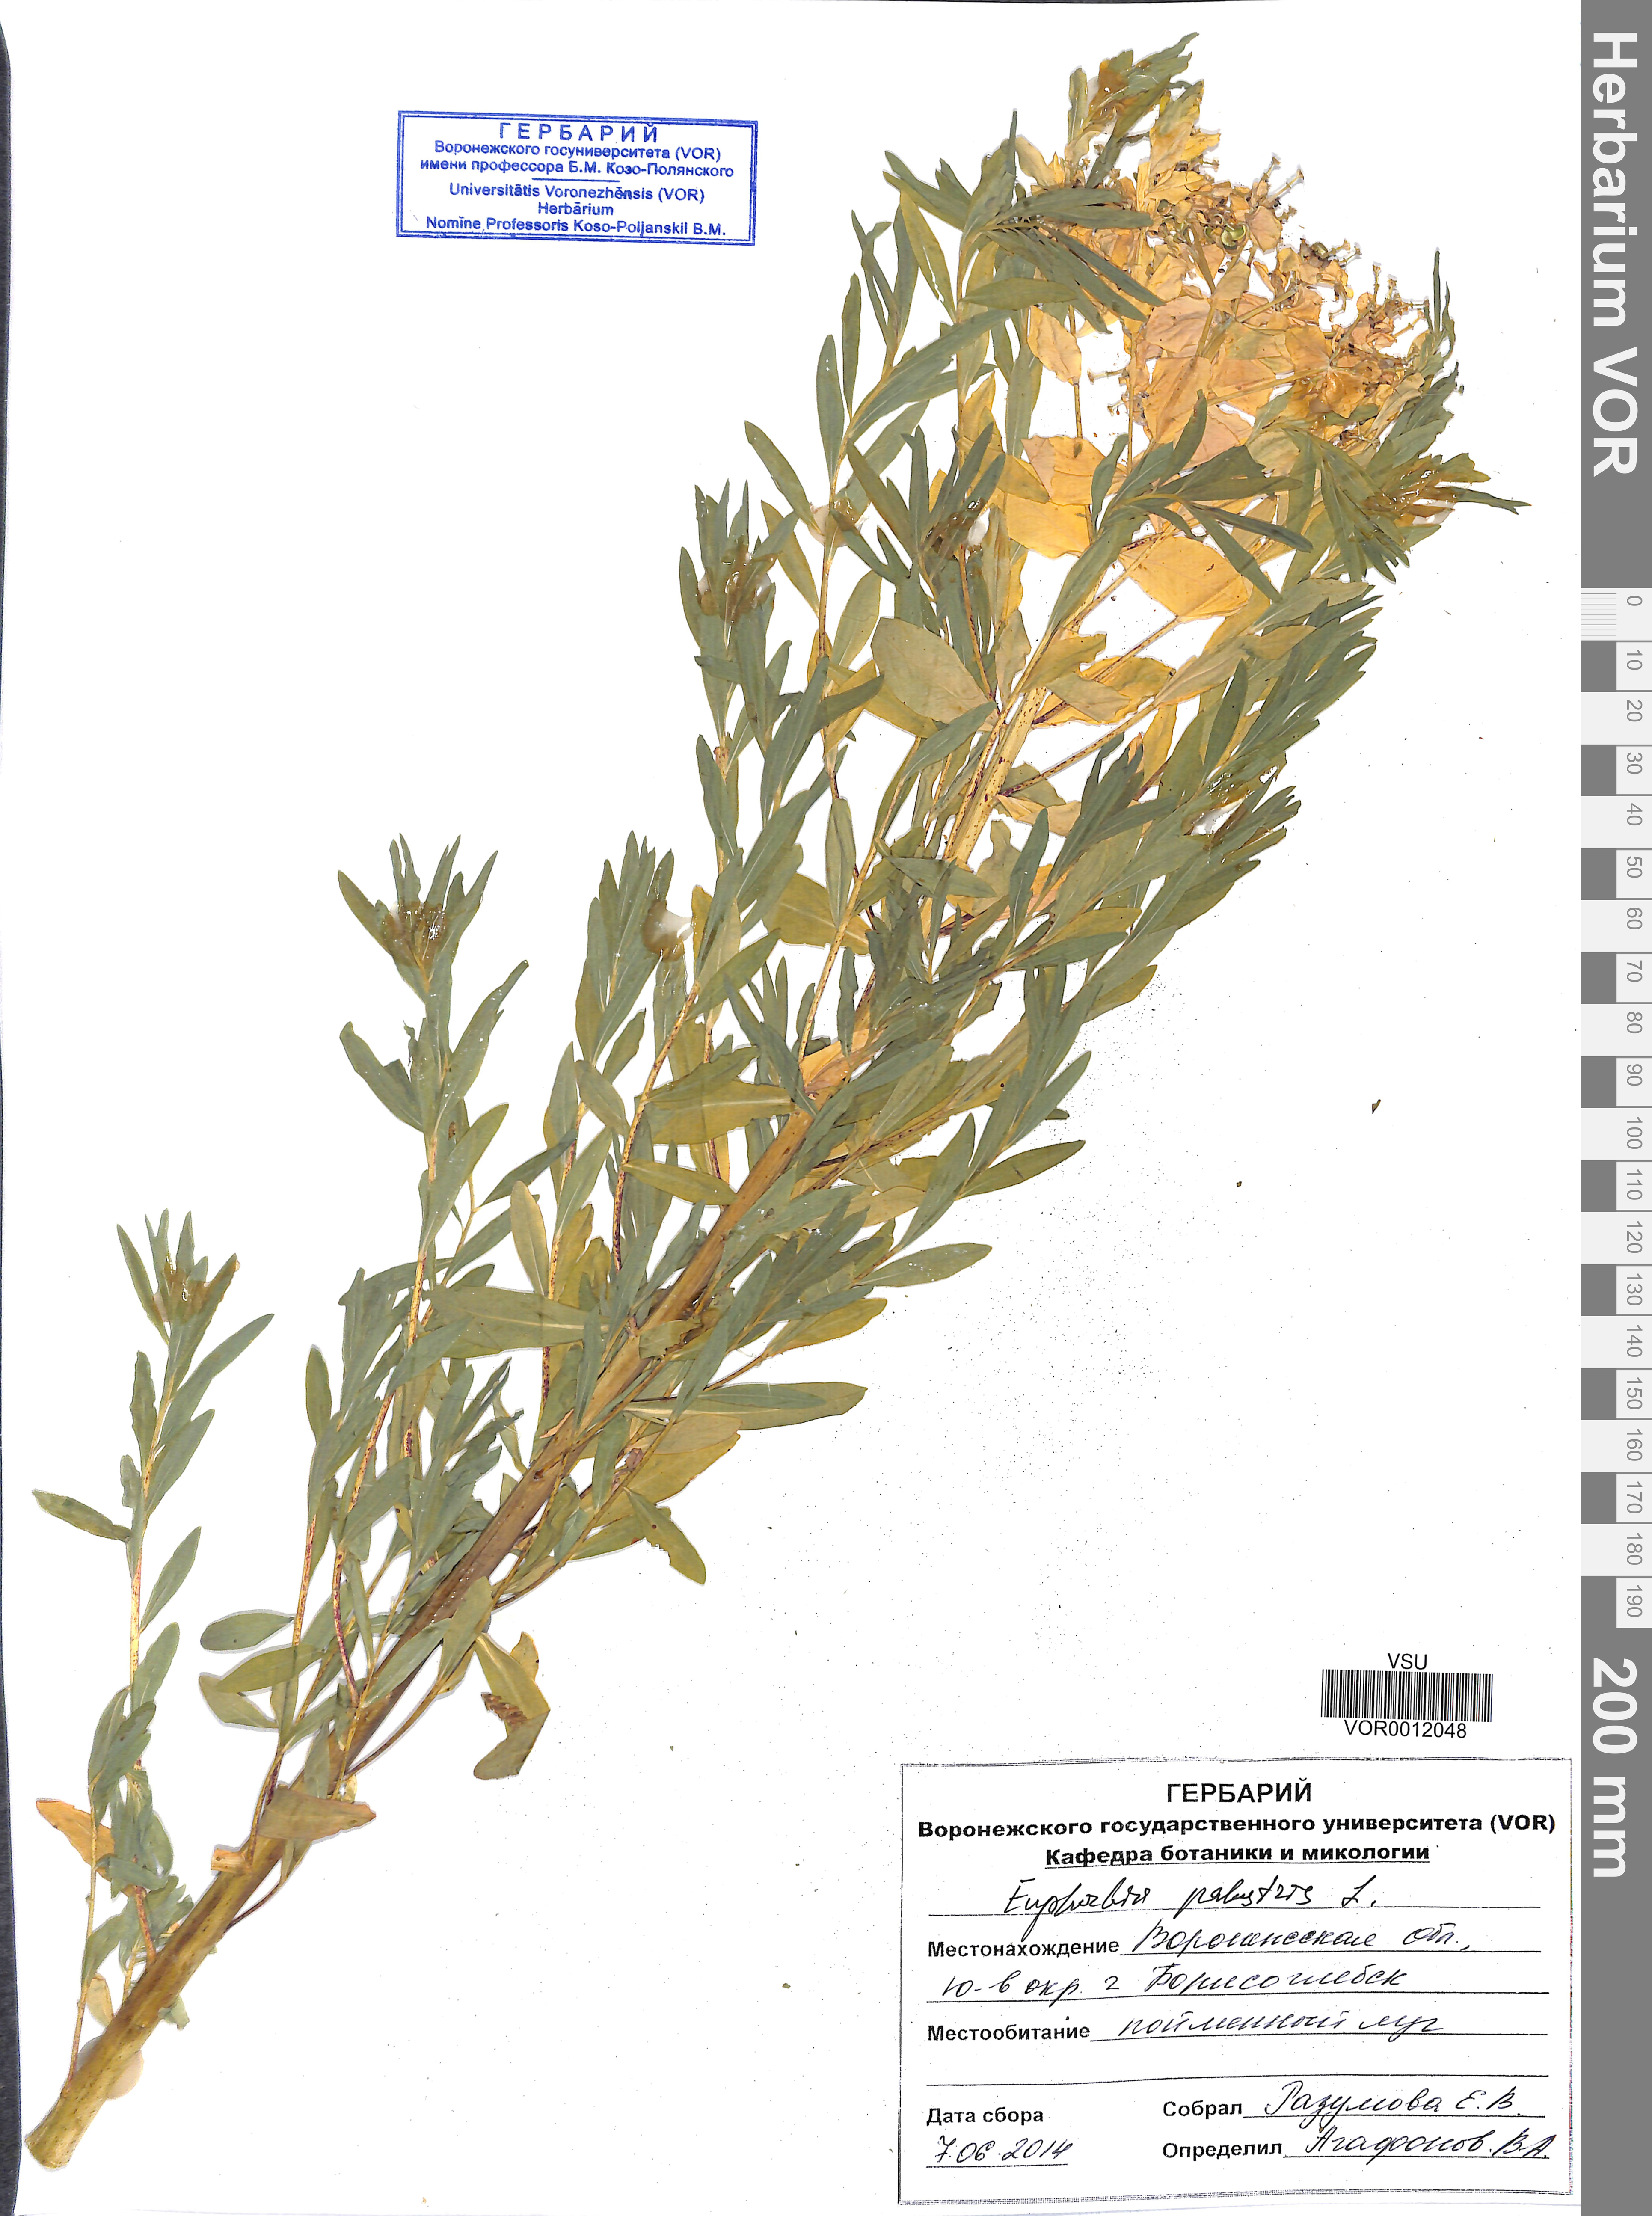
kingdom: Plantae
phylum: Tracheophyta
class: Magnoliopsida
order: Malpighiales
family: Euphorbiaceae
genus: Euphorbia
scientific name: Euphorbia palustris
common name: Marsh spurge
